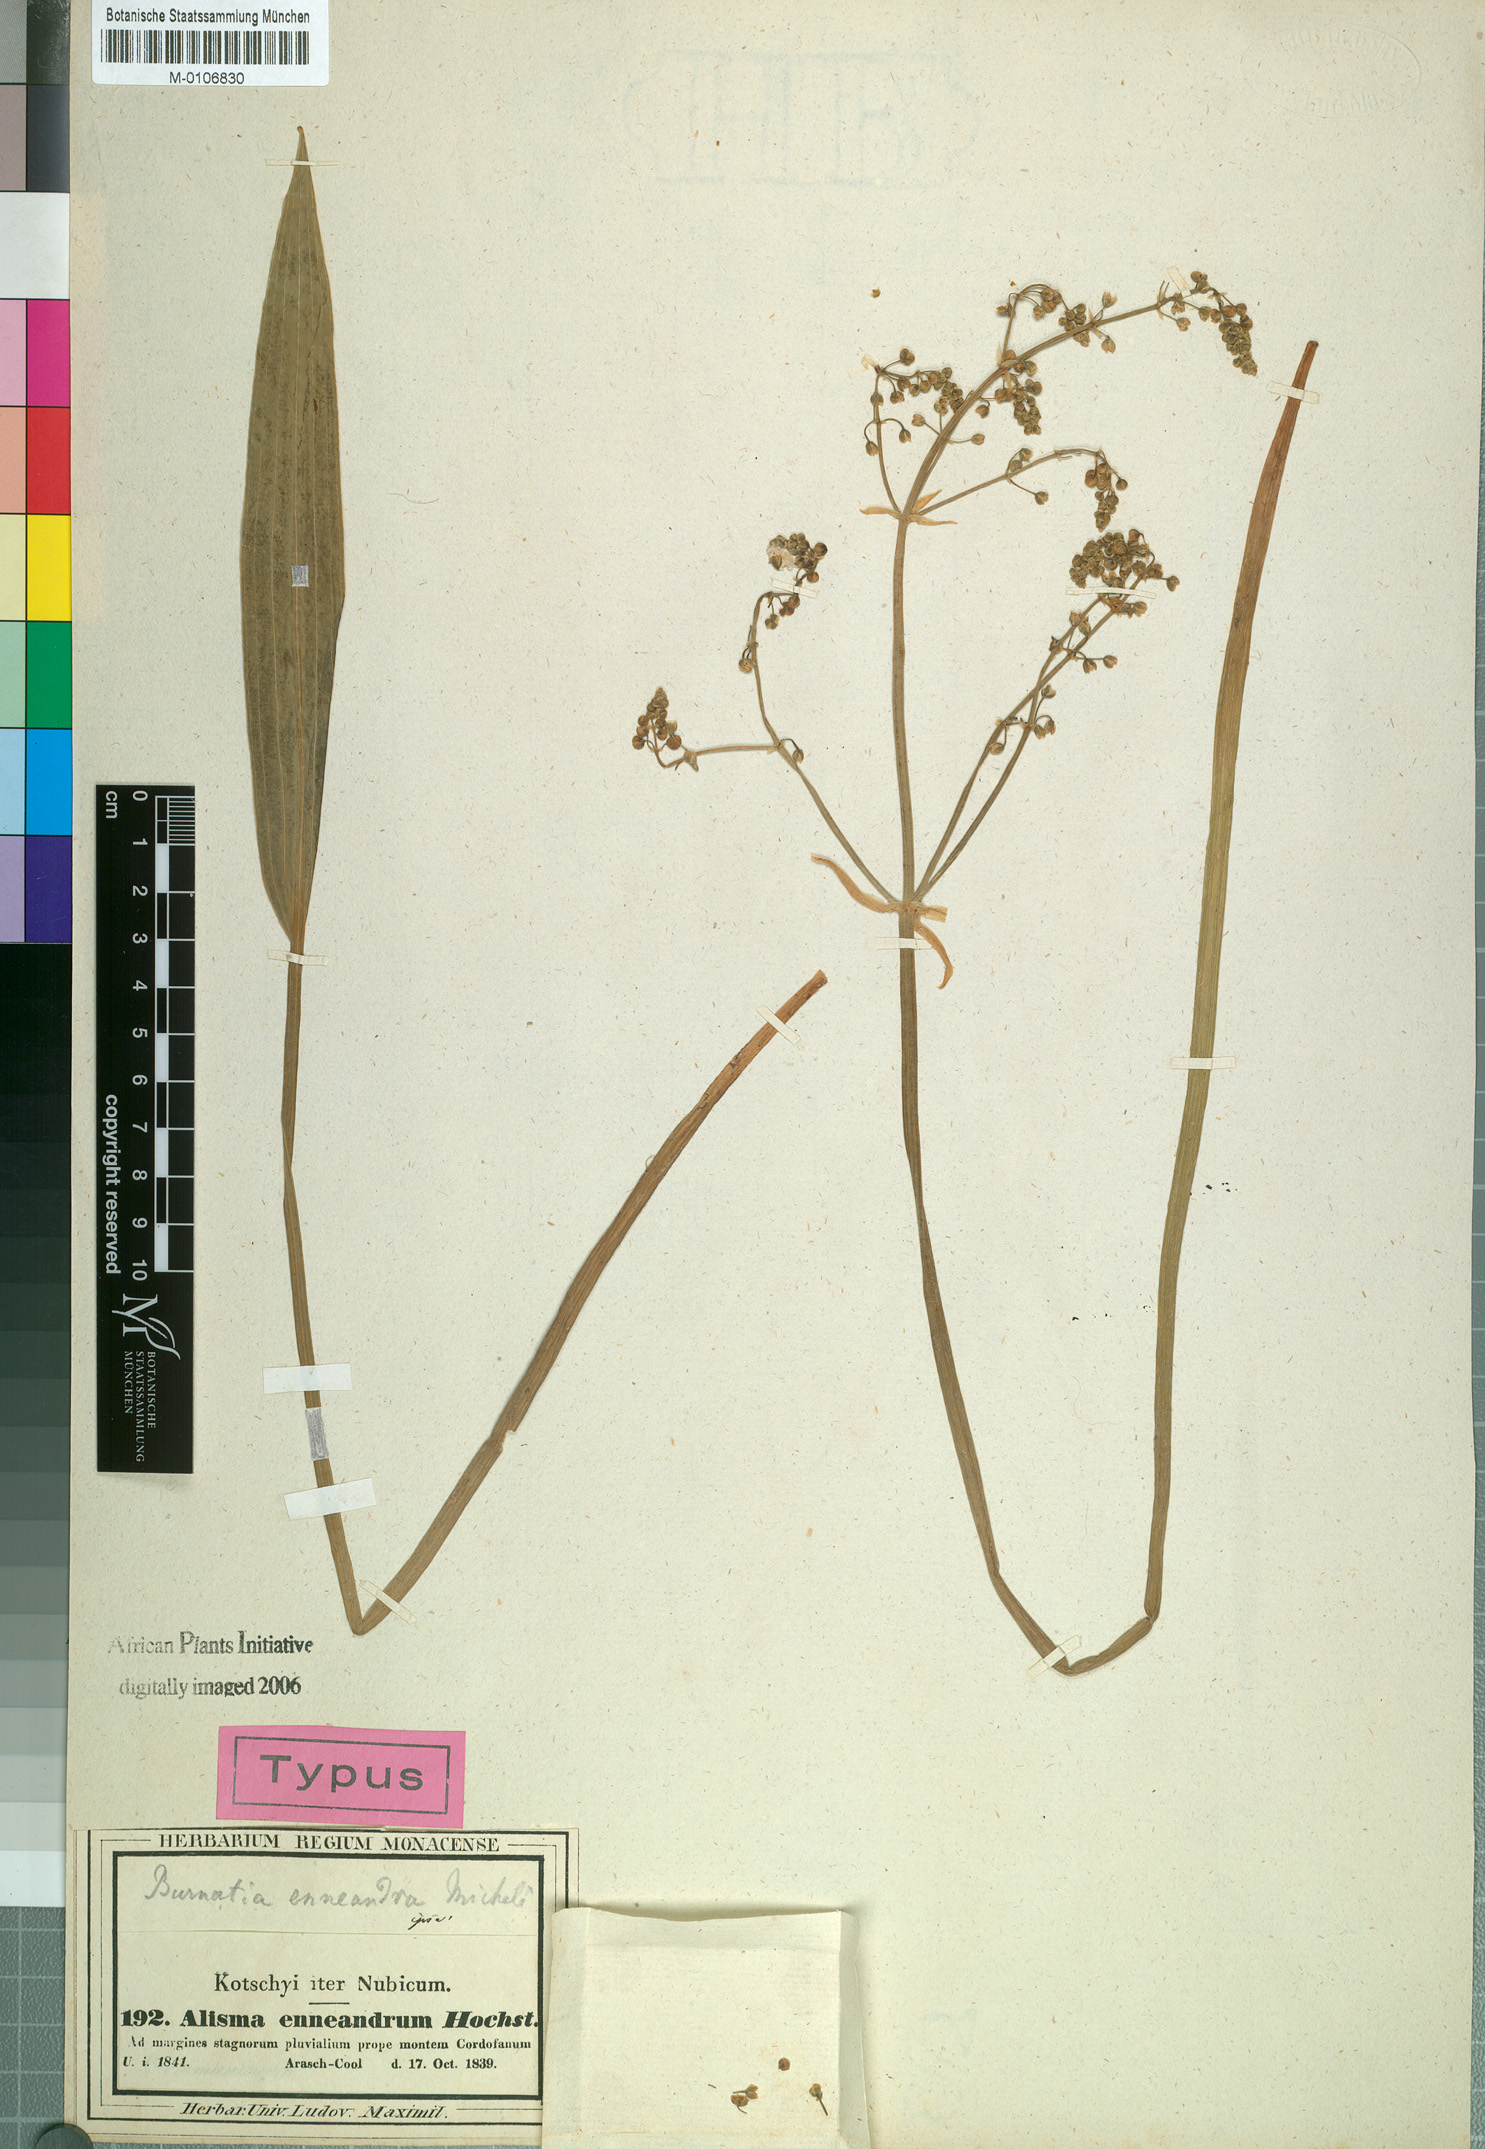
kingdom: Plantae
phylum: Tracheophyta
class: Liliopsida
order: Alismatales
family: Alismataceae
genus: Burnatia
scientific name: Burnatia enneandra
